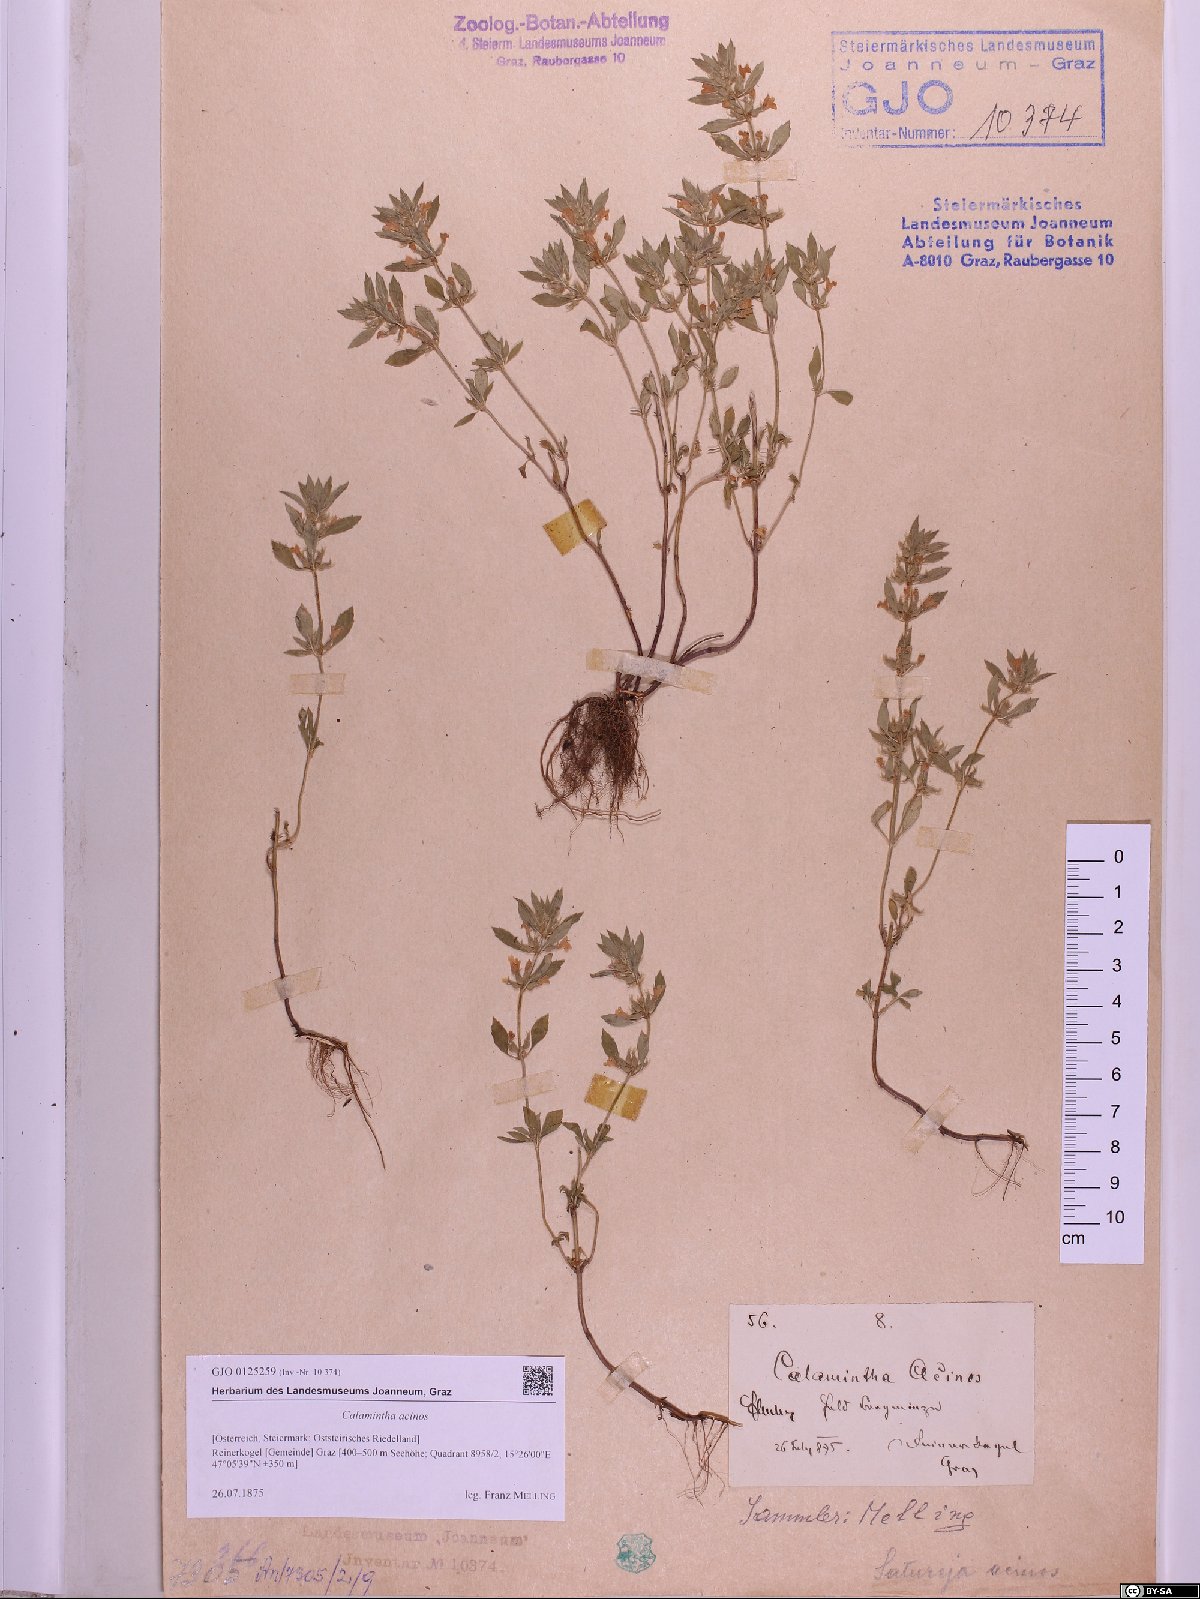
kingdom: Plantae
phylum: Tracheophyta
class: Magnoliopsida
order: Lamiales
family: Lamiaceae
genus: Clinopodium
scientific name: Clinopodium acinos
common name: Basil thyme
